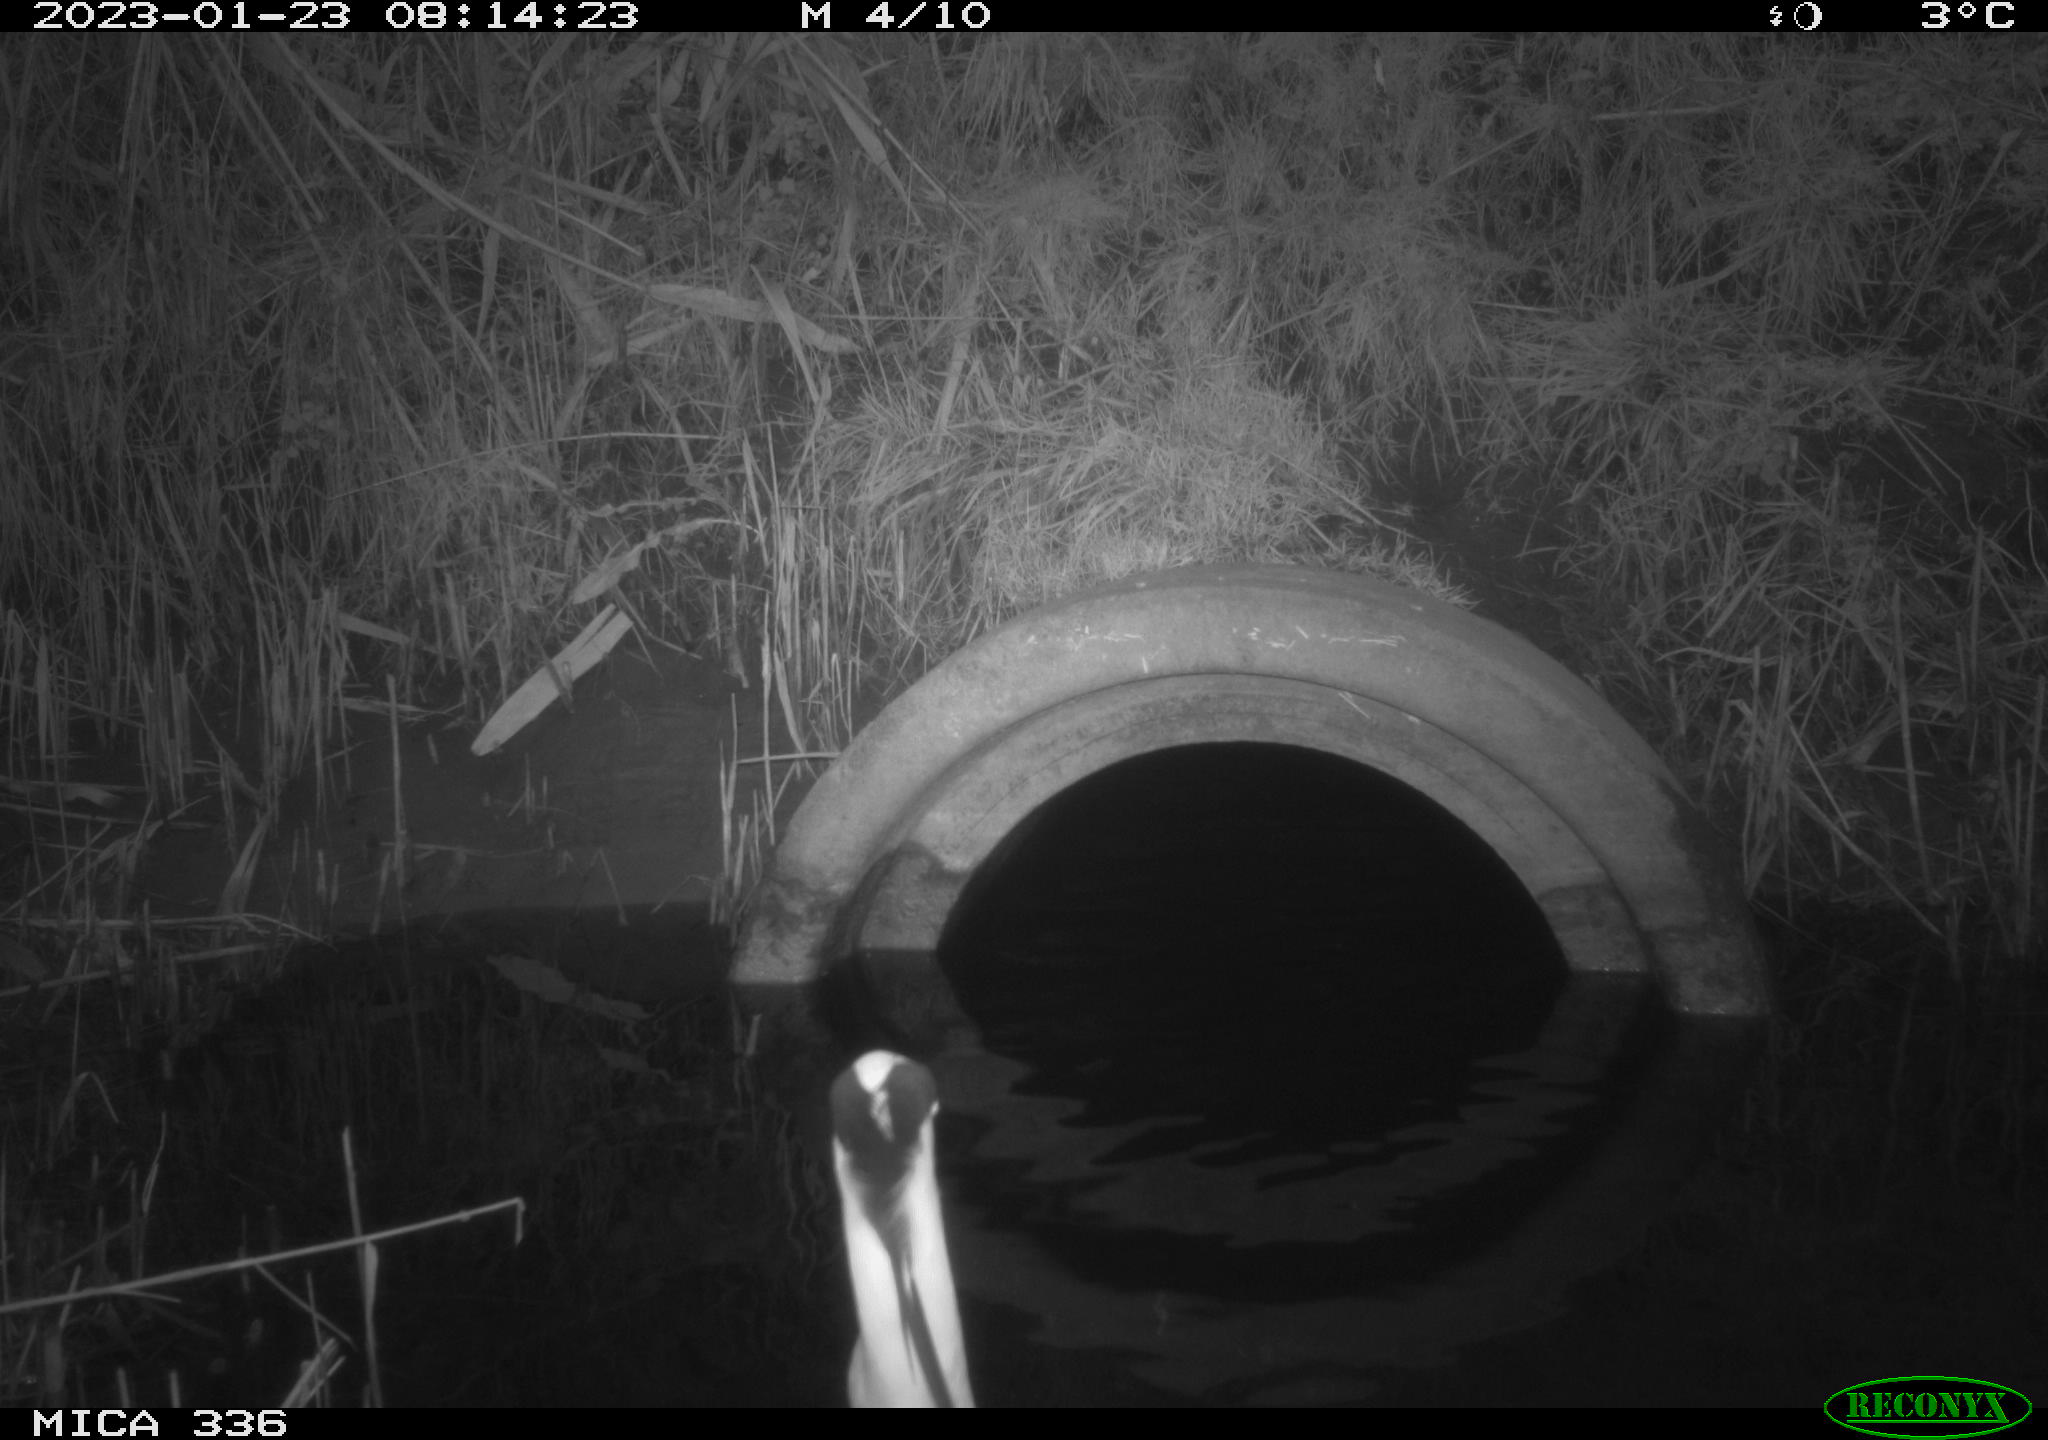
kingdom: Animalia
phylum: Chordata
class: Aves
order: Pelecaniformes
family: Ardeidae
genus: Ardea
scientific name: Ardea cinerea
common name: Grey heron
